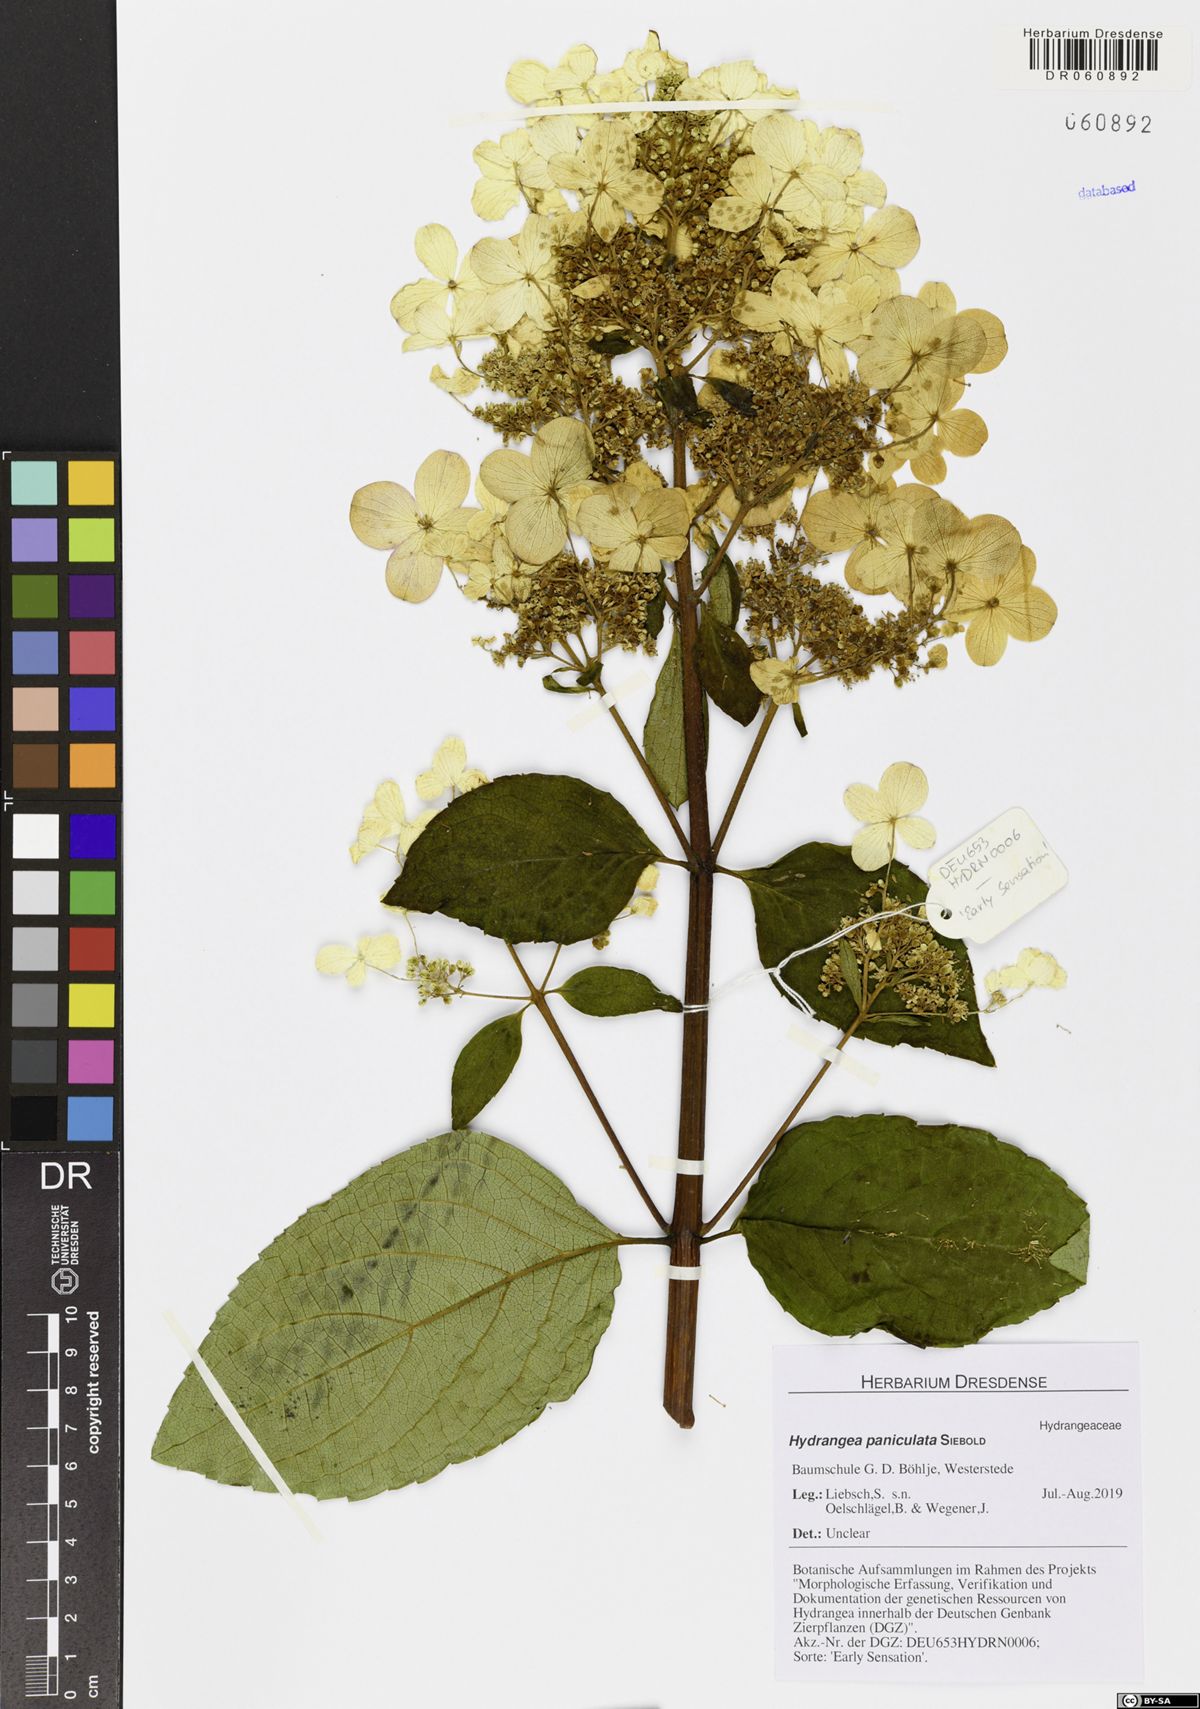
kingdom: Plantae
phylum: Tracheophyta
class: Magnoliopsida
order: Cornales
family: Hydrangeaceae
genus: Hydrangea
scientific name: Hydrangea paniculata
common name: Panicled hydrangea
